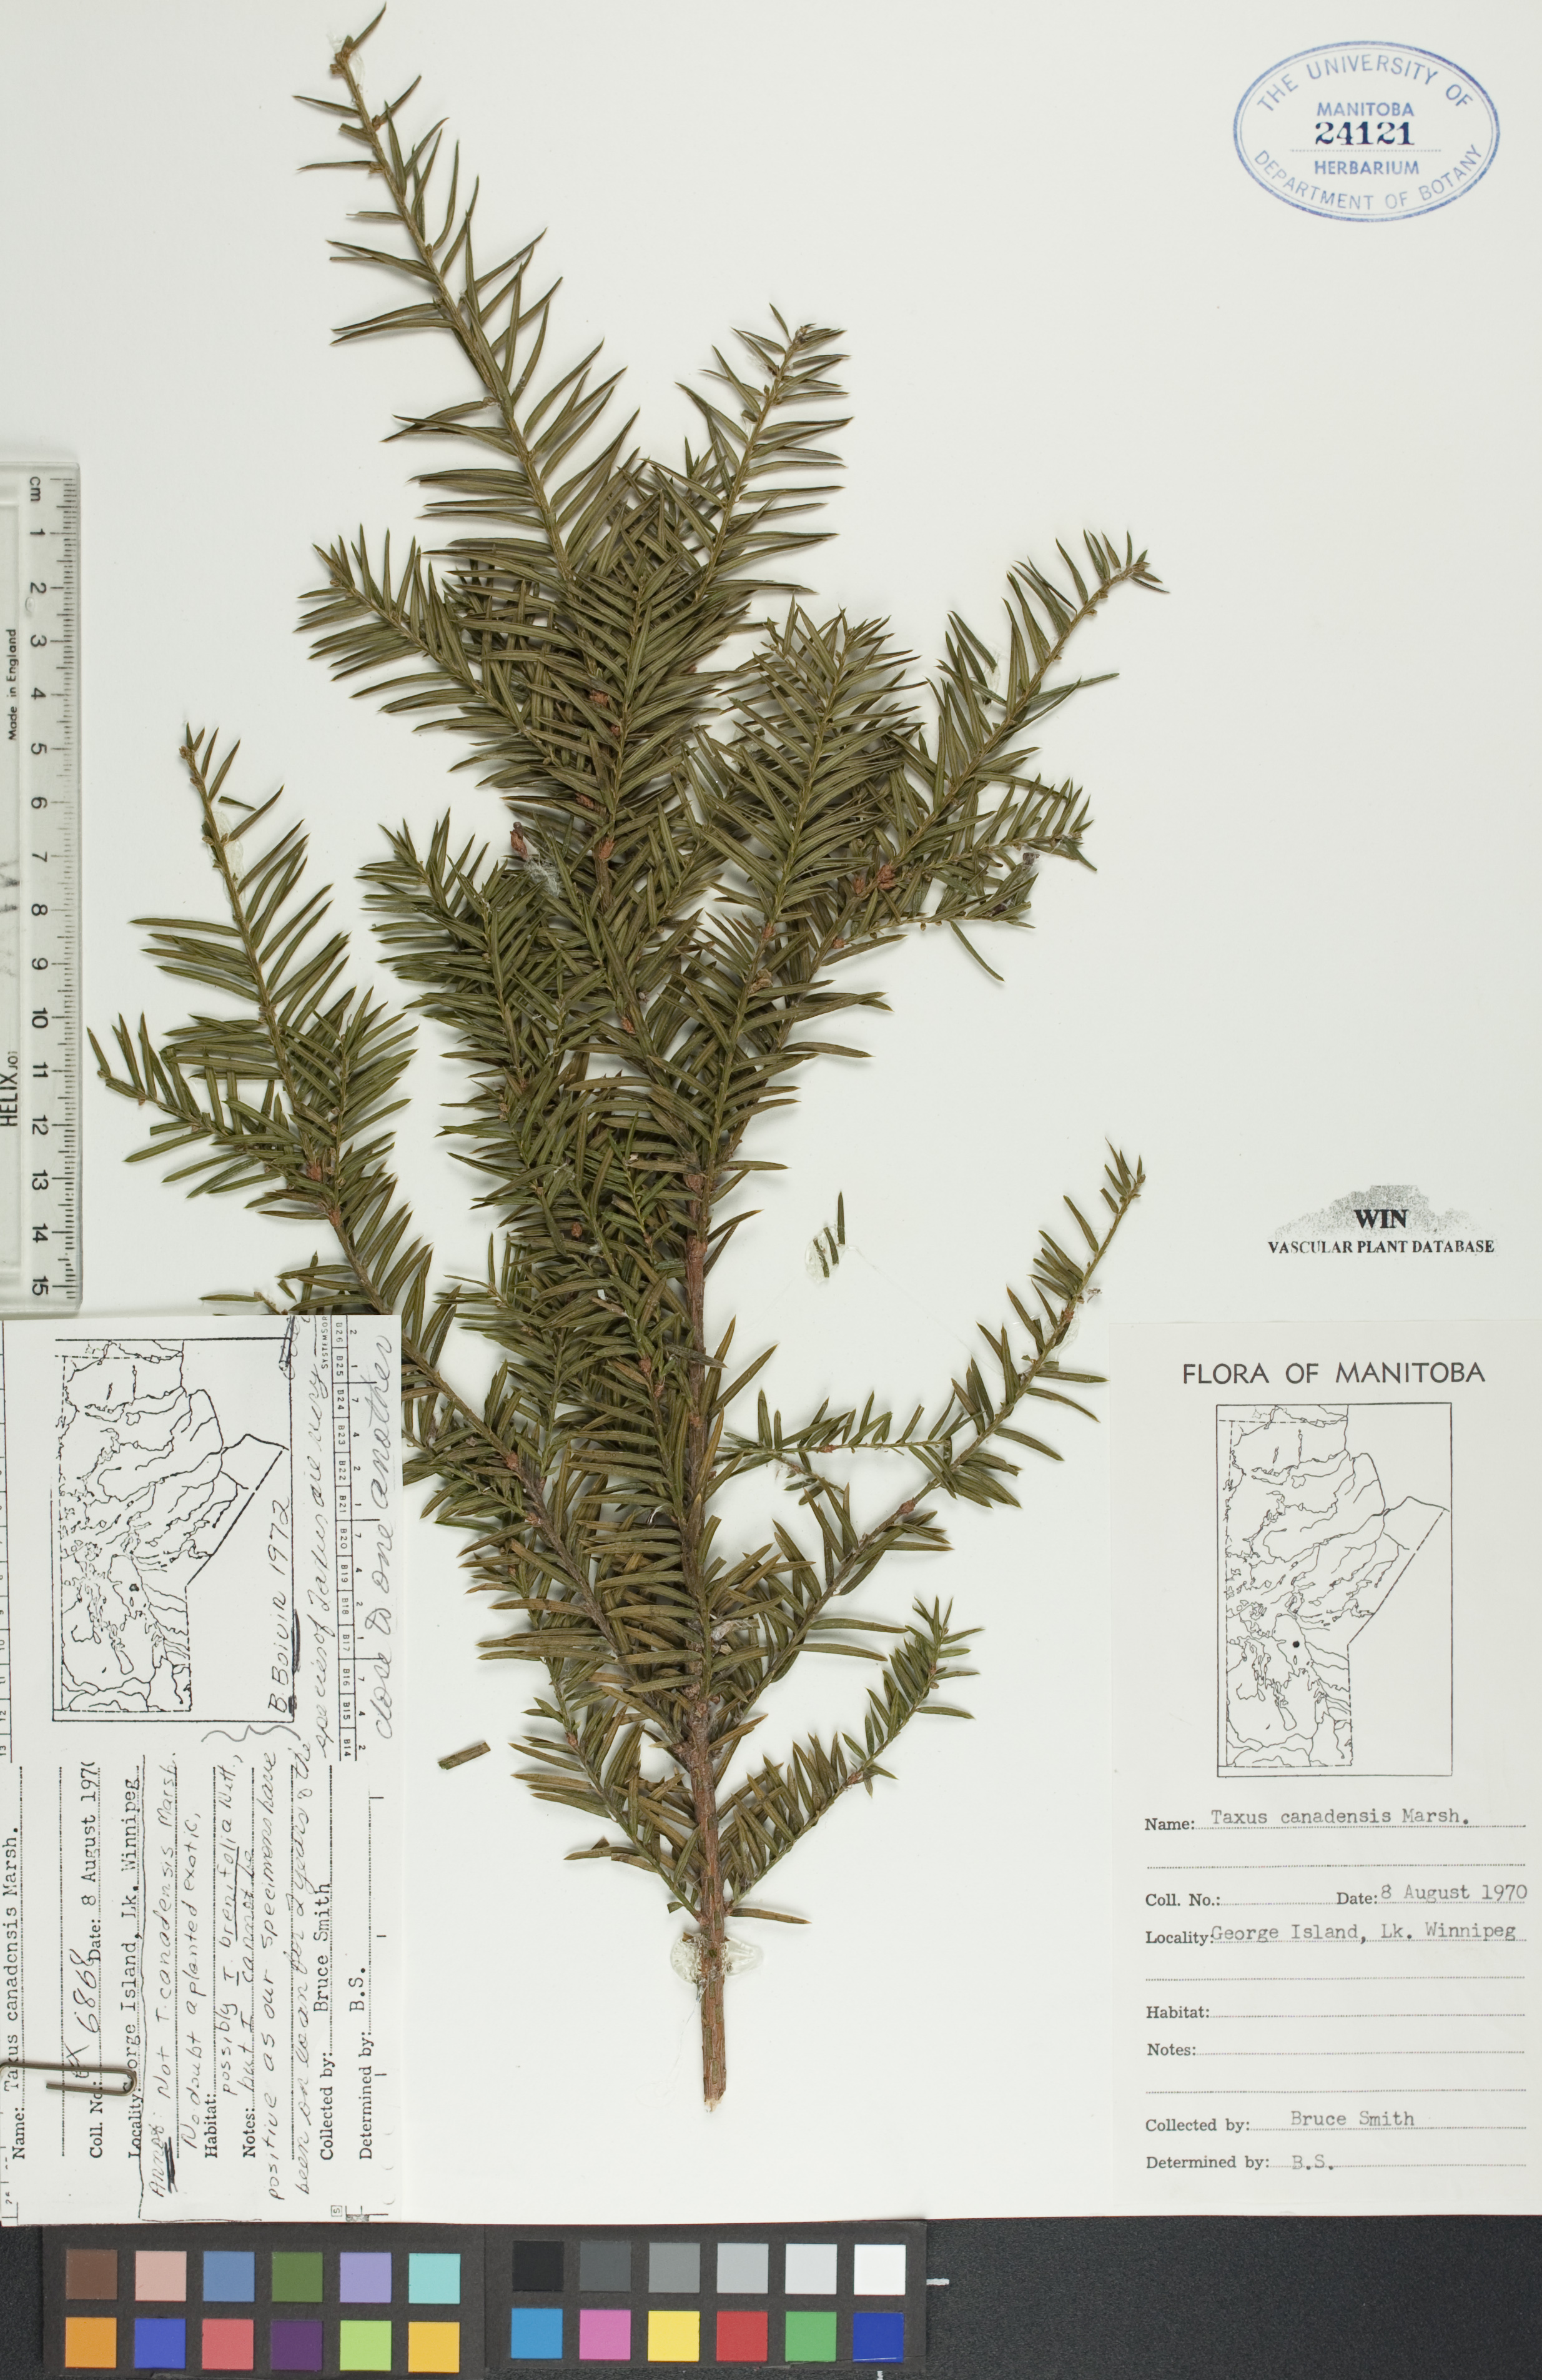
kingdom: Plantae
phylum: Tracheophyta
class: Pinopsida
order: Pinales
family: Taxaceae
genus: Taxus
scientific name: Taxus canadensis
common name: American yew
